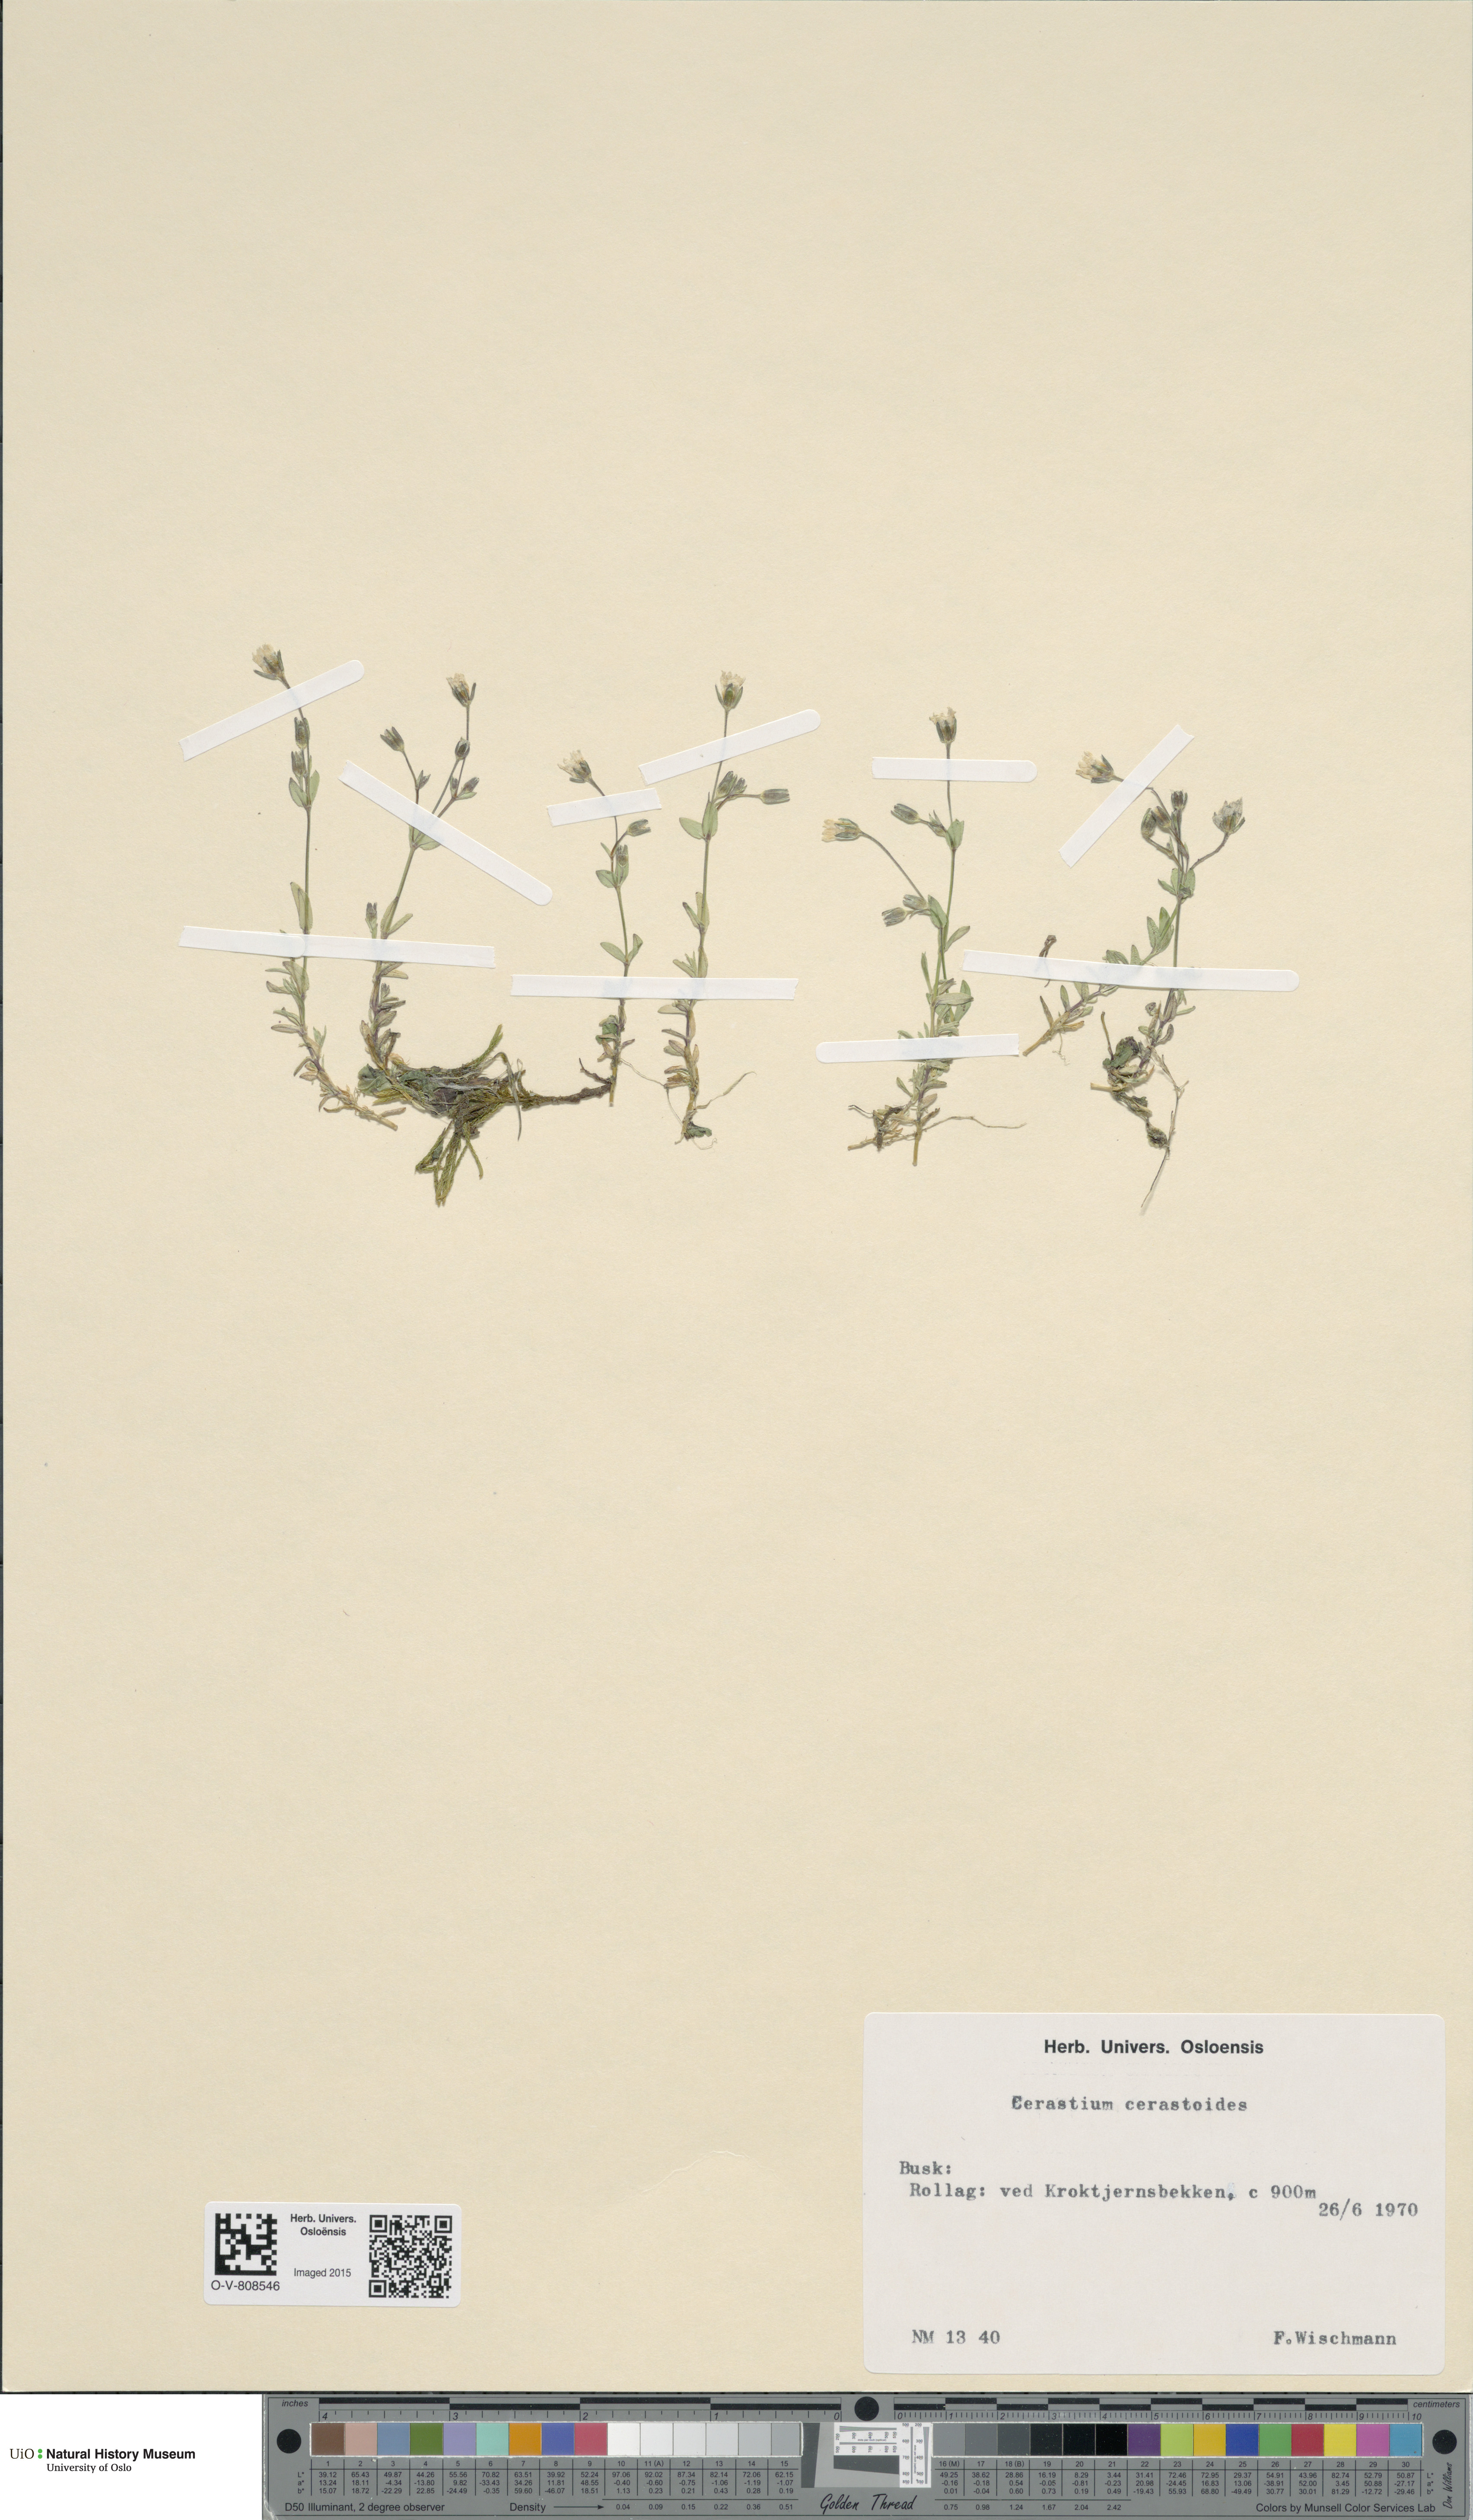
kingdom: Plantae
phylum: Tracheophyta
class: Magnoliopsida
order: Caryophyllales
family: Caryophyllaceae
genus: Dichodon
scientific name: Dichodon cerastoides
